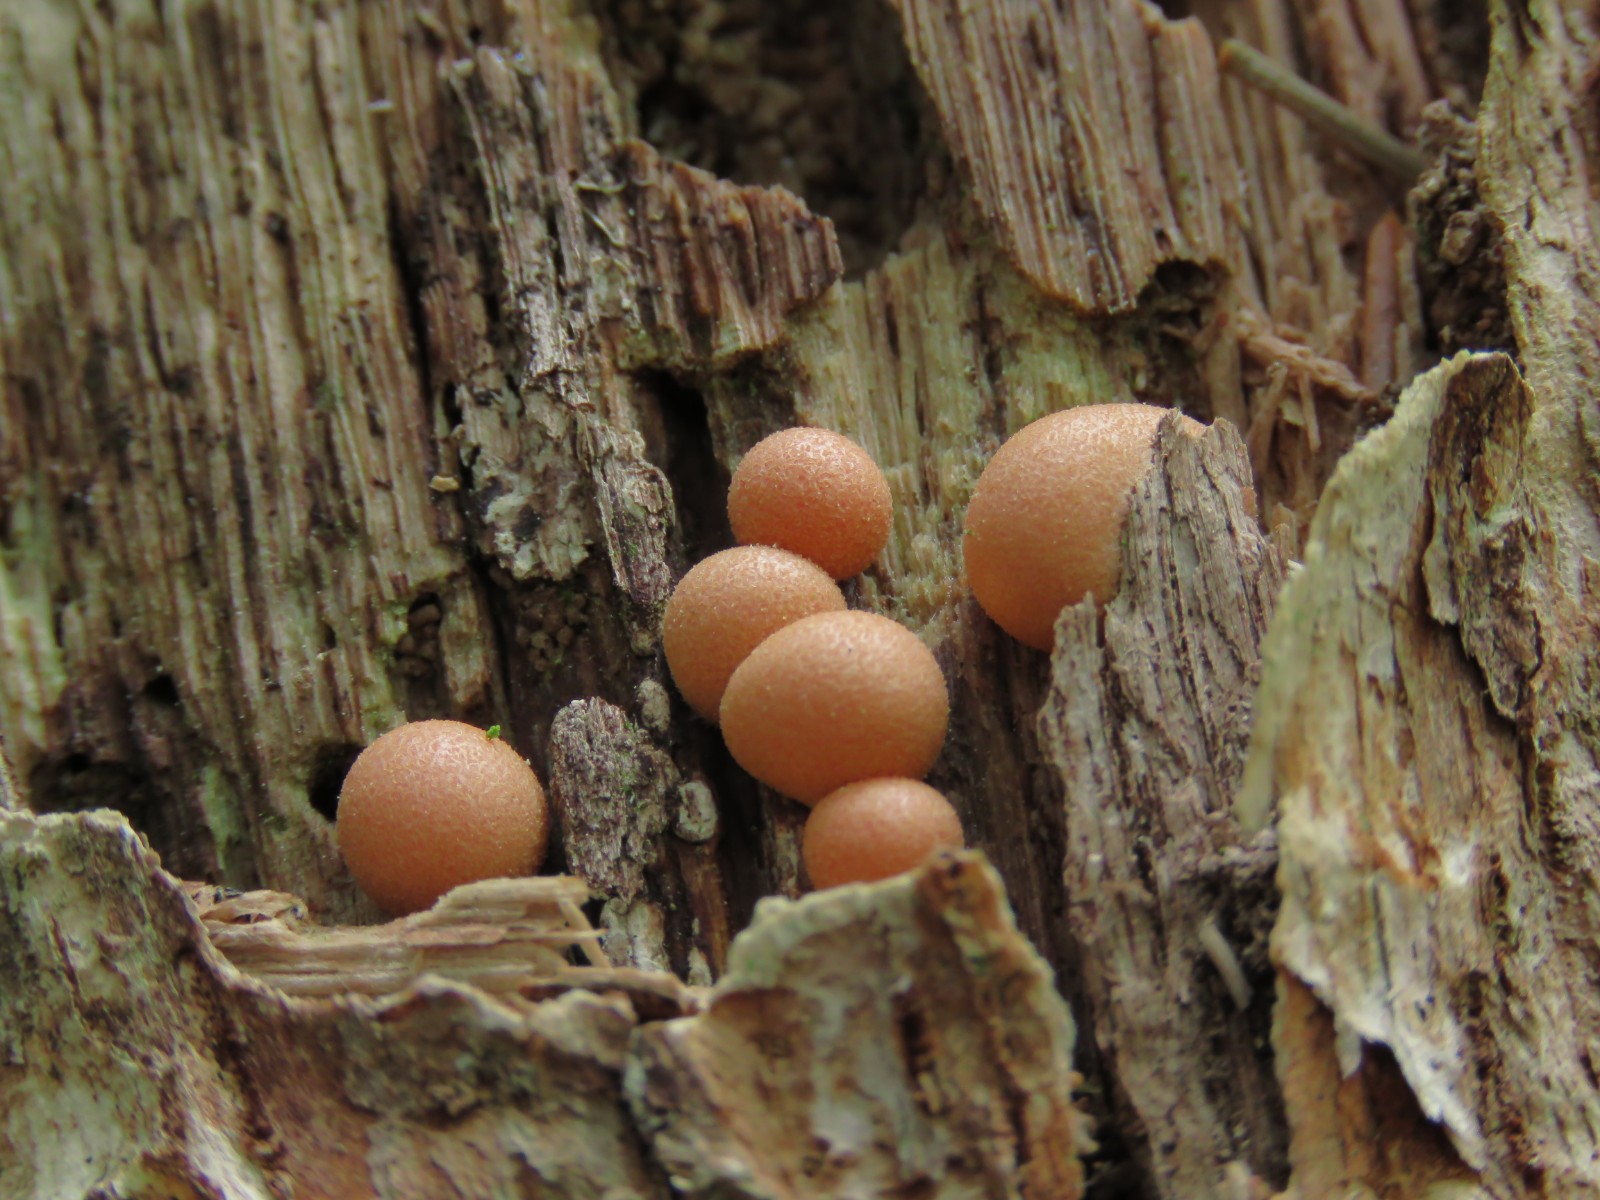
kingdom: Protozoa
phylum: Mycetozoa
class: Myxomycetes
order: Cribrariales
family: Tubiferaceae
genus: Lycogala
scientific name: Lycogala epidendrum
